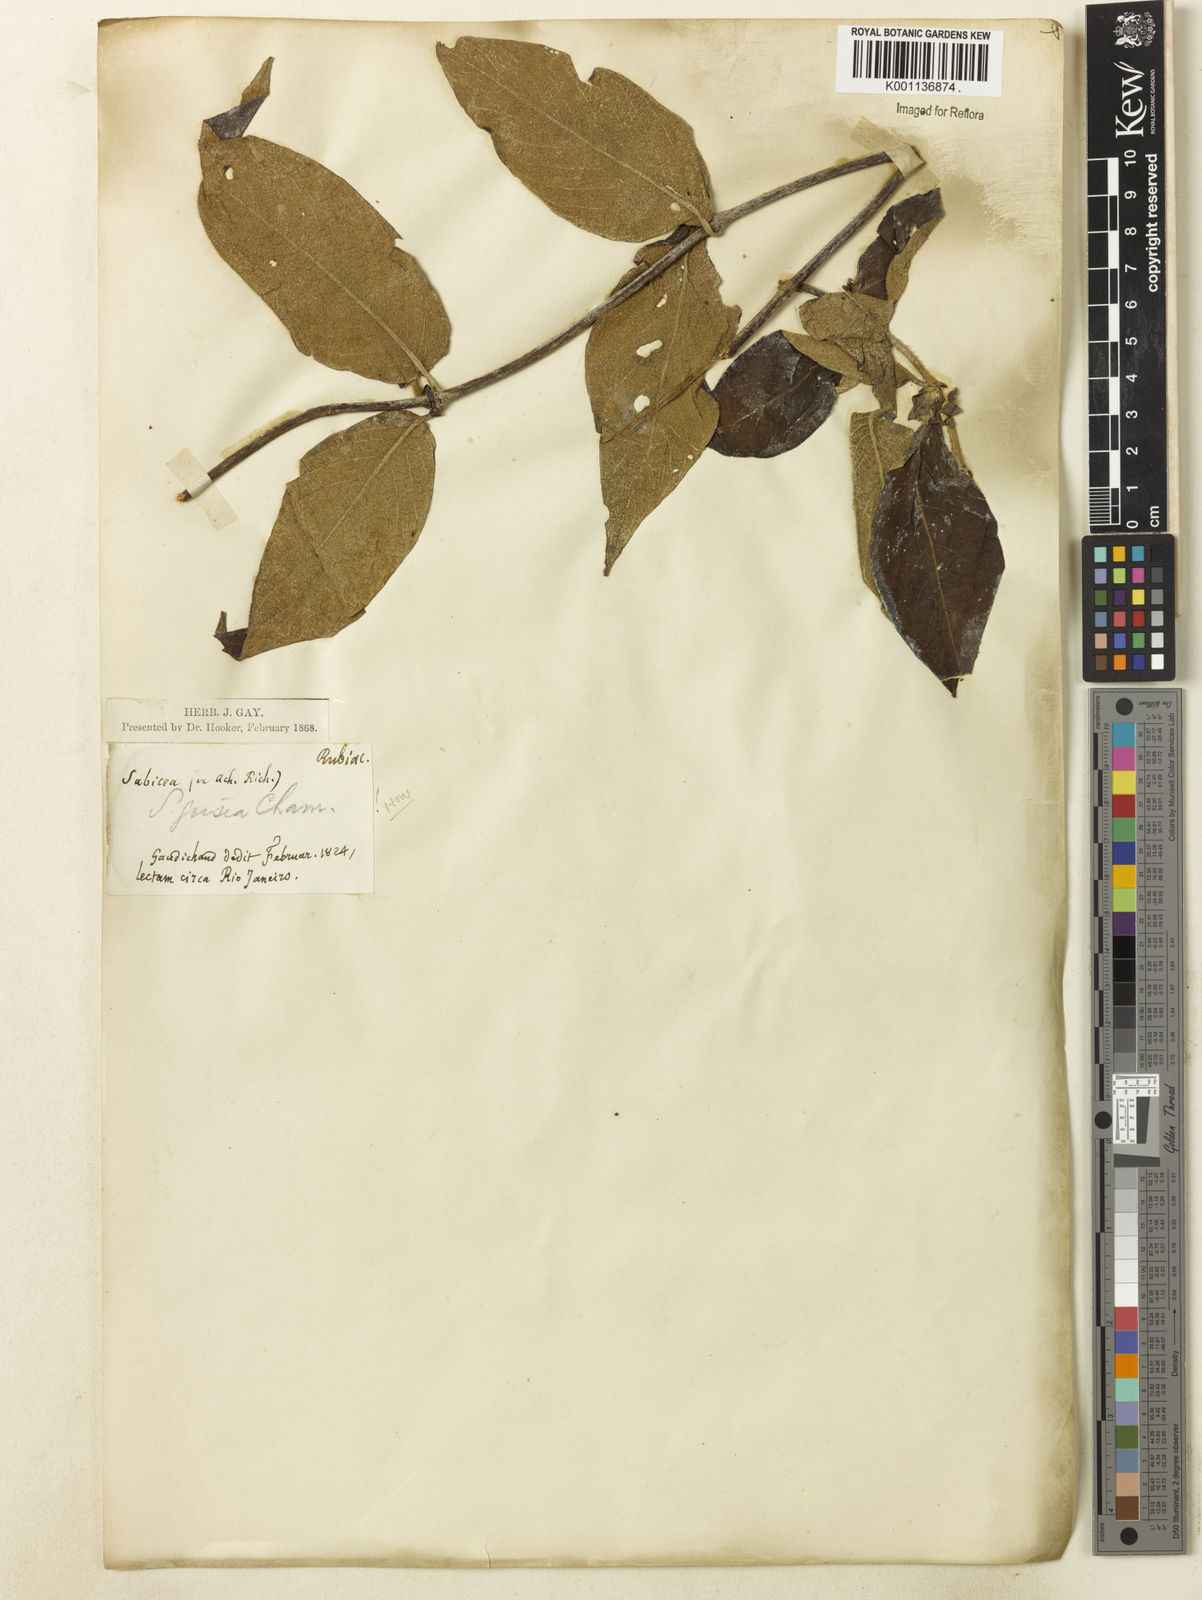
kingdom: Plantae
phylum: Tracheophyta
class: Magnoliopsida
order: Gentianales
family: Rubiaceae
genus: Sabicea
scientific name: Sabicea grisea
